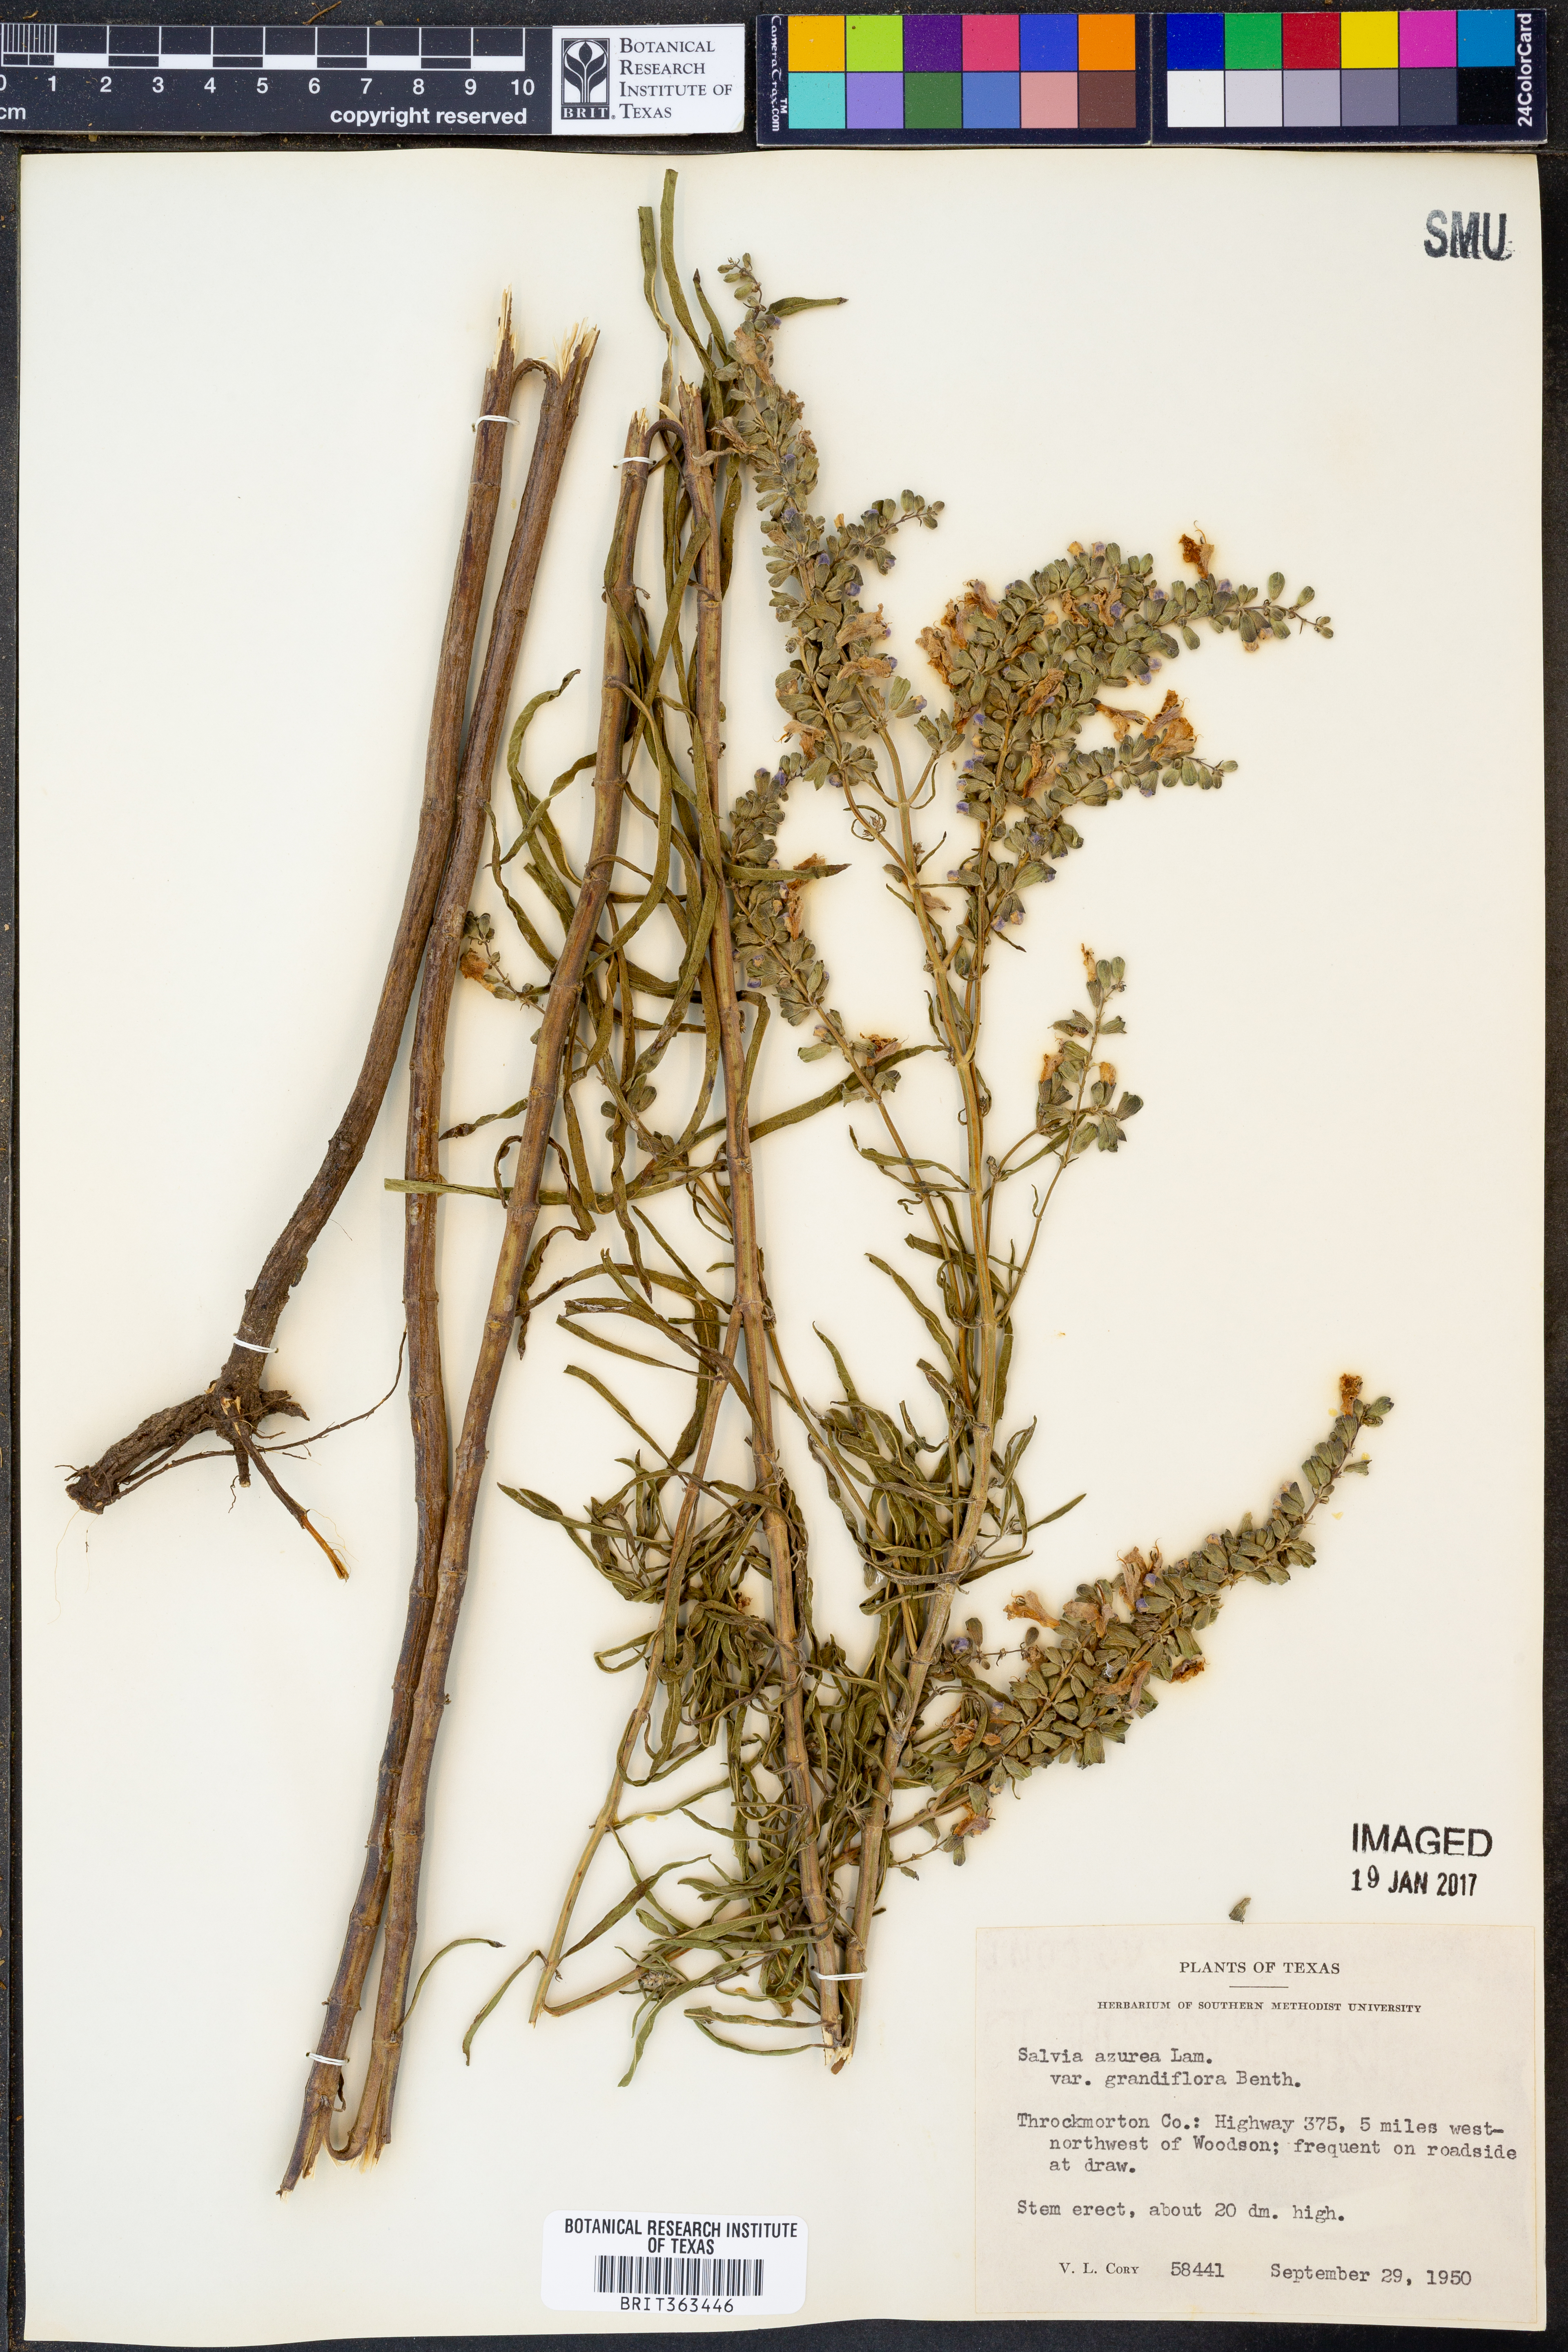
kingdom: Plantae
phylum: Tracheophyta
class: Magnoliopsida
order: Lamiales
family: Lamiaceae
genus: Salvia
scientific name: Salvia azurea
